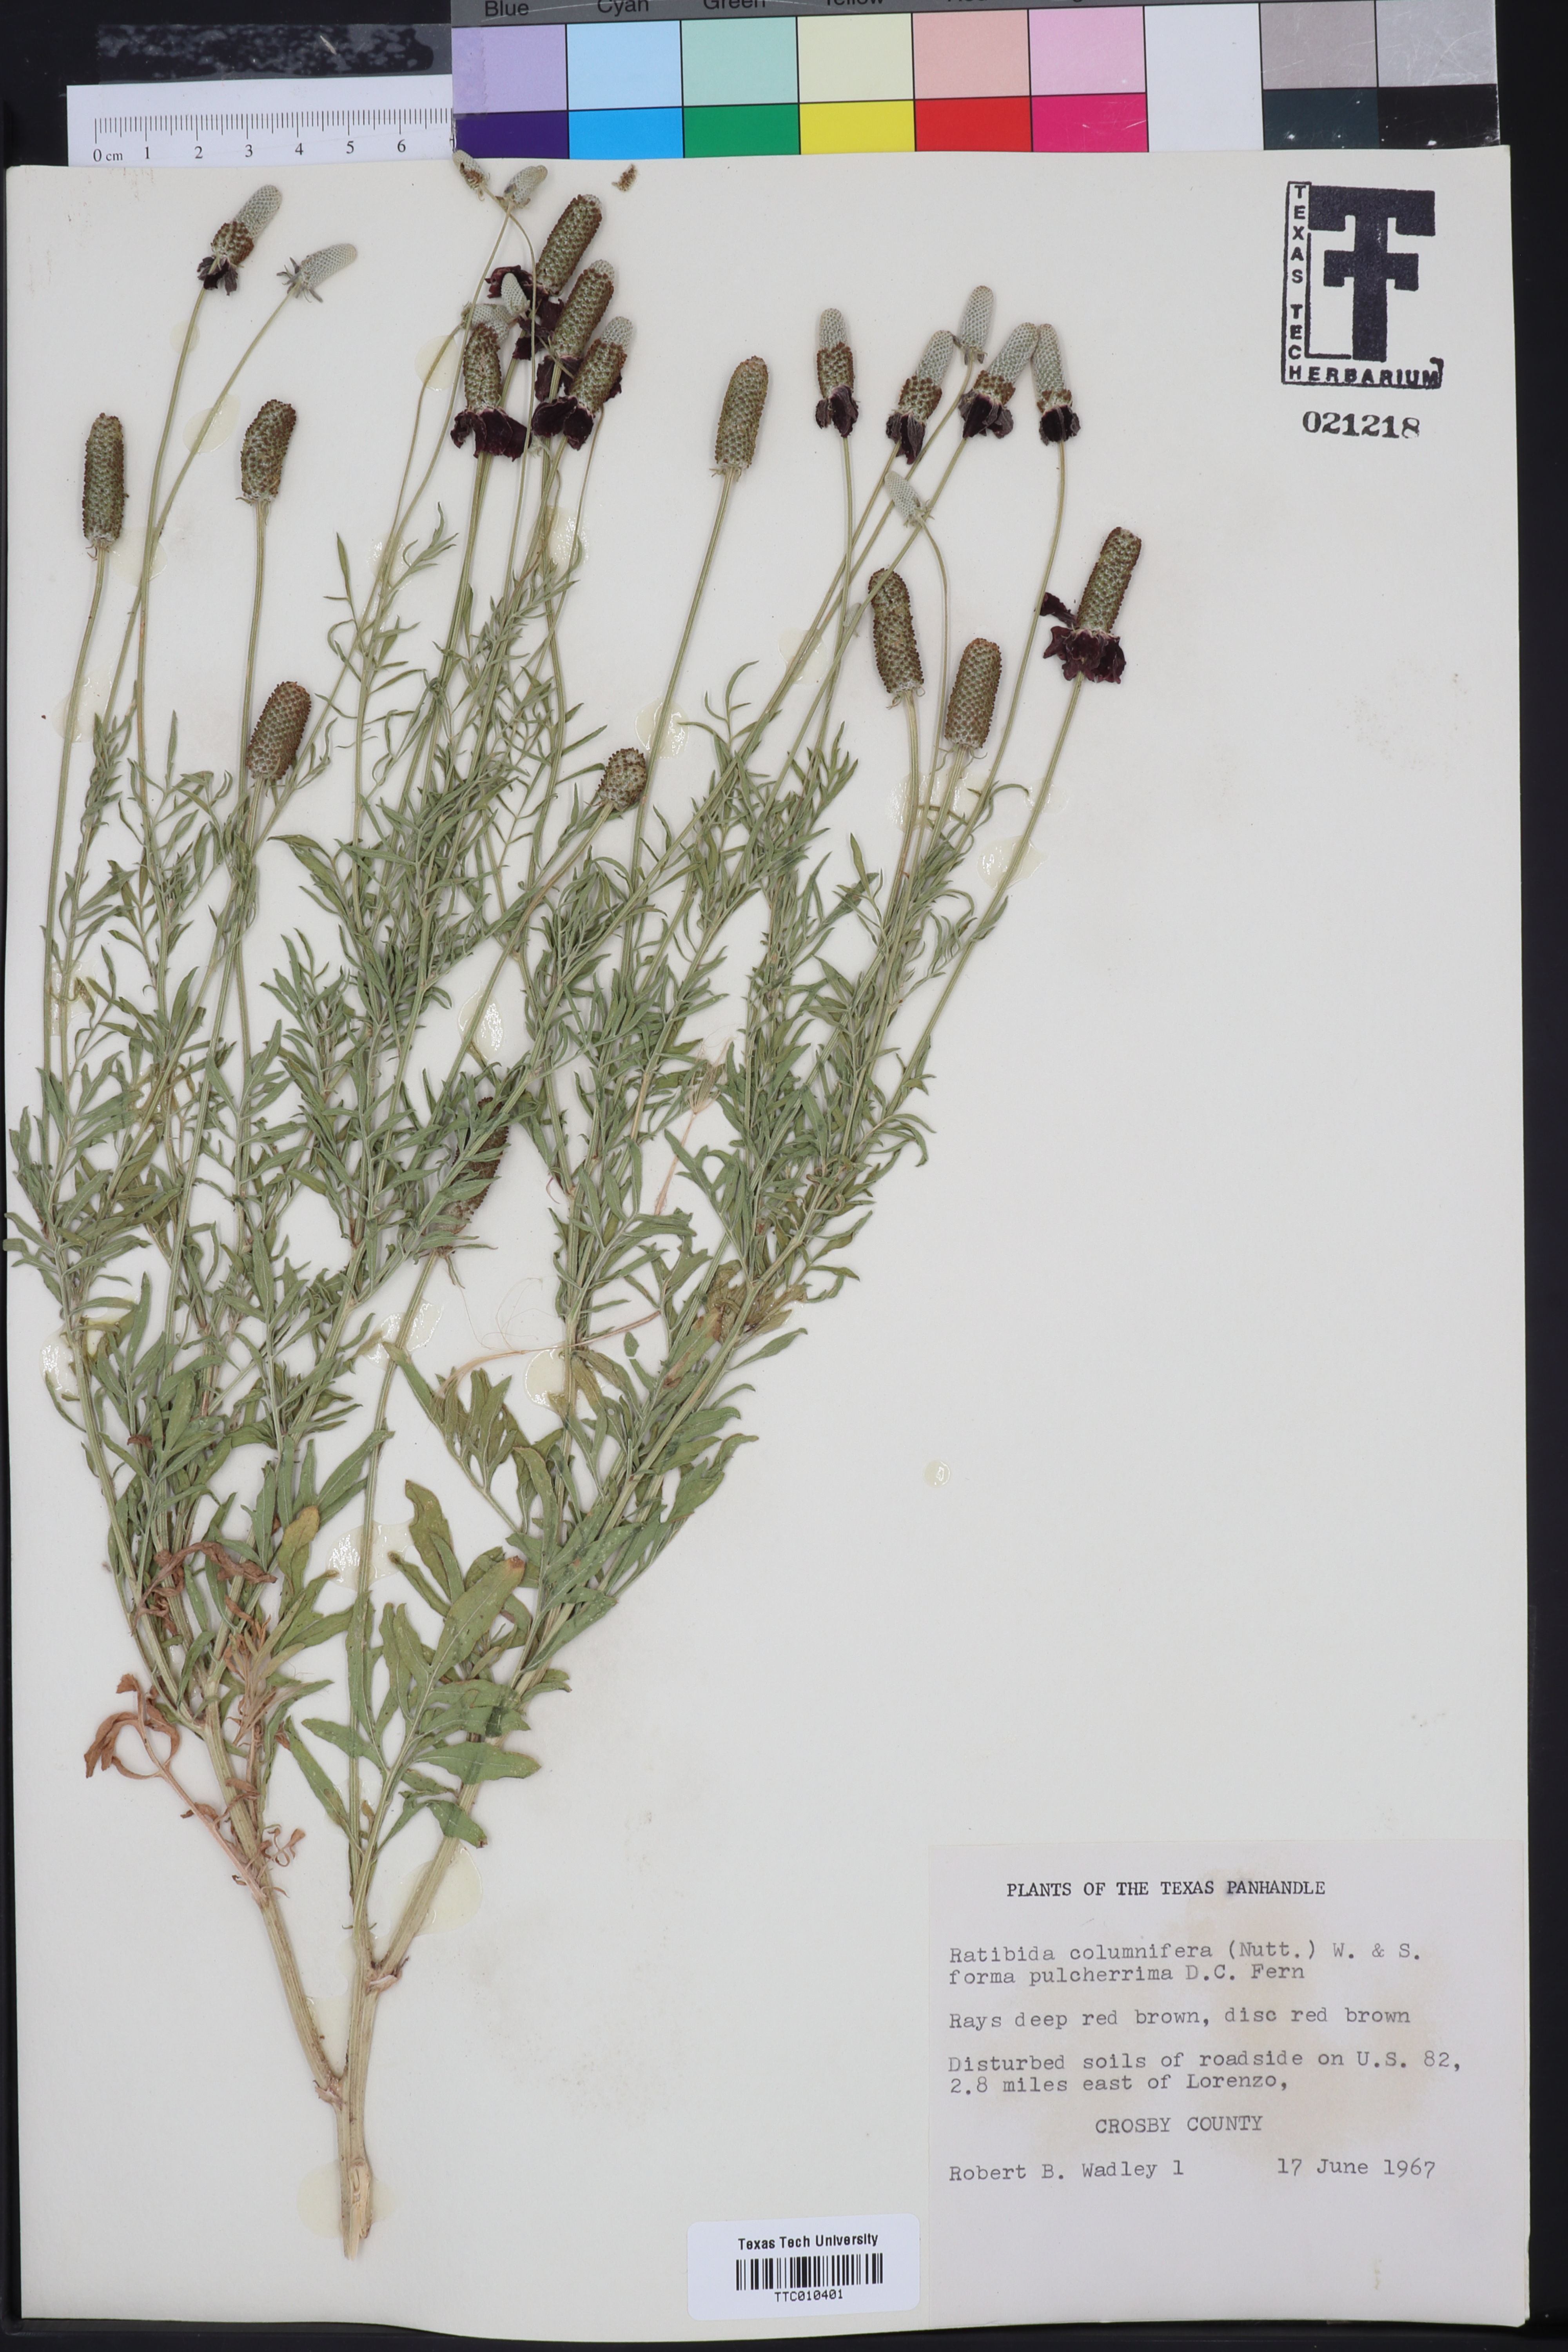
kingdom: Plantae
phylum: Tracheophyta
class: Magnoliopsida
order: Asterales
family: Asteraceae
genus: Ratibida
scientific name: Ratibida columnifera
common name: Prairie coneflower
